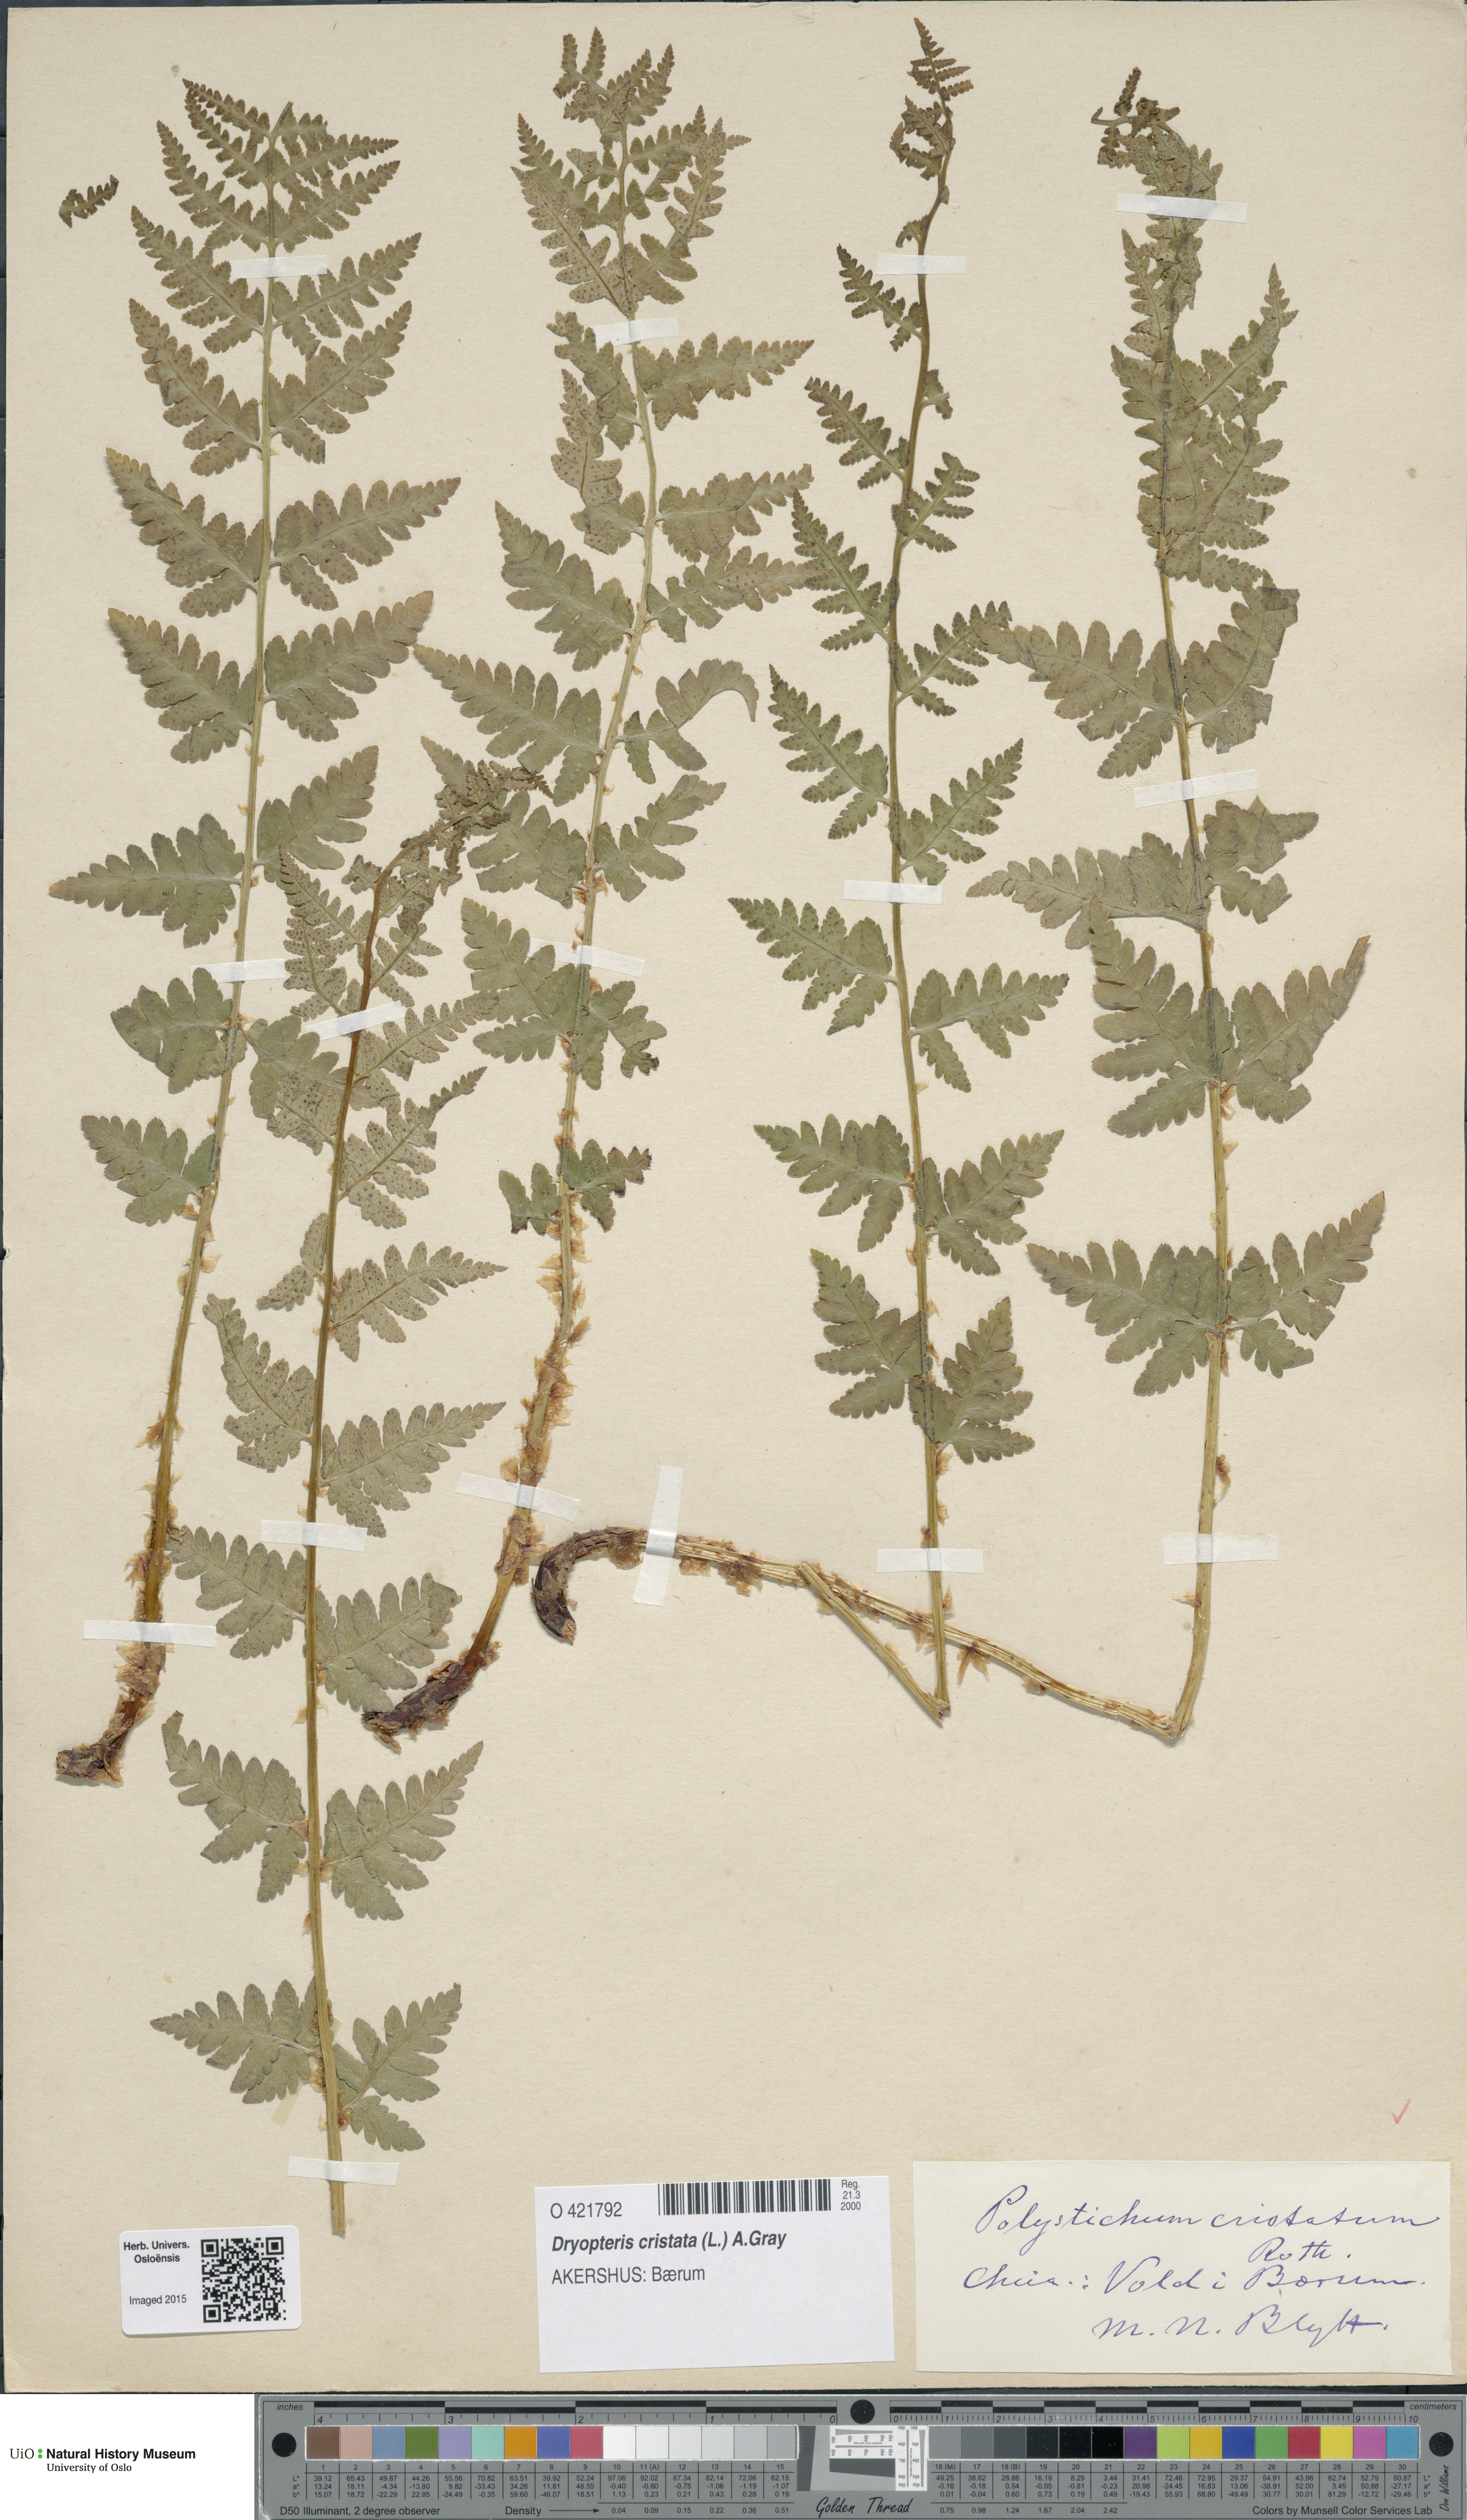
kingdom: Plantae
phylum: Tracheophyta
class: Polypodiopsida
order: Polypodiales
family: Dryopteridaceae
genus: Dryopteris
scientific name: Dryopteris cristata
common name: Crested wood fern
